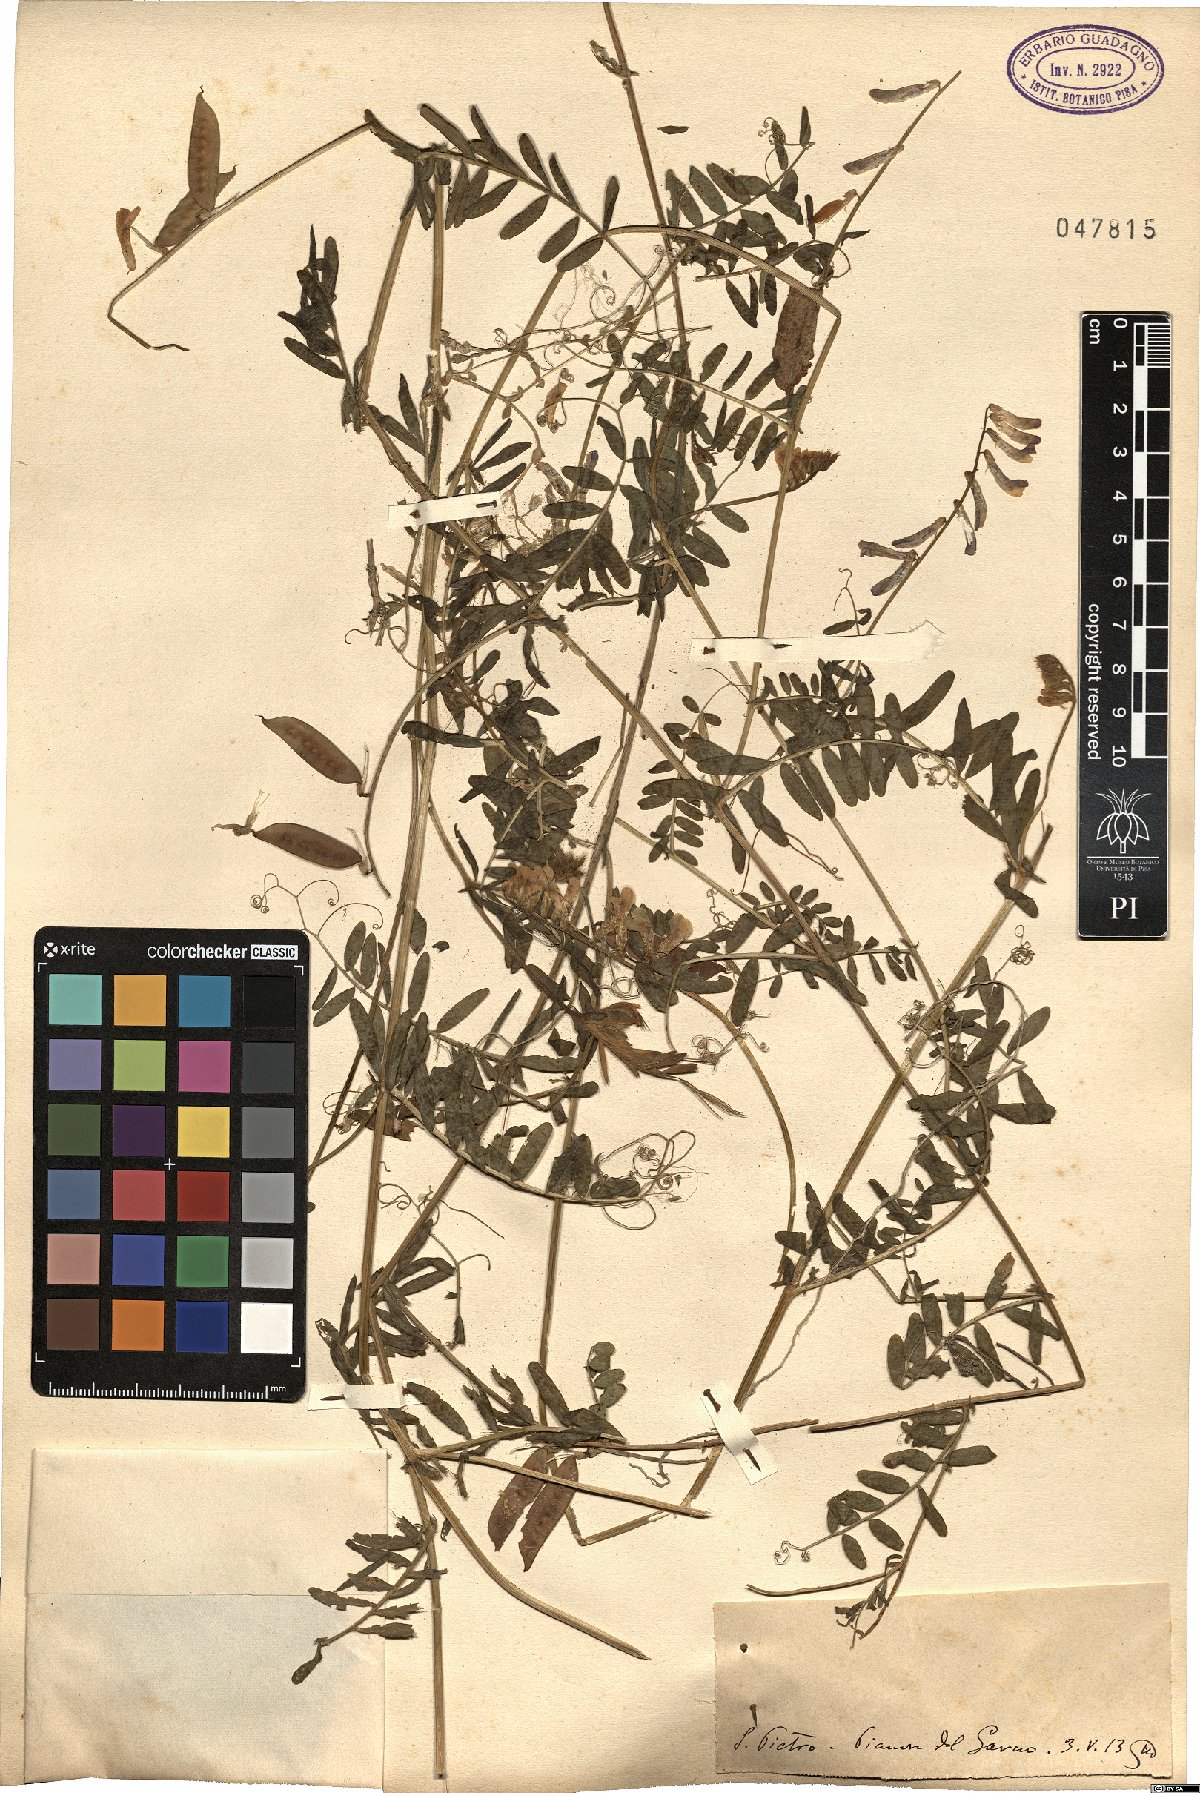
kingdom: Plantae
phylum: Tracheophyta
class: Magnoliopsida
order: Fabales
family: Fabaceae
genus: Vicia
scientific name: Vicia
